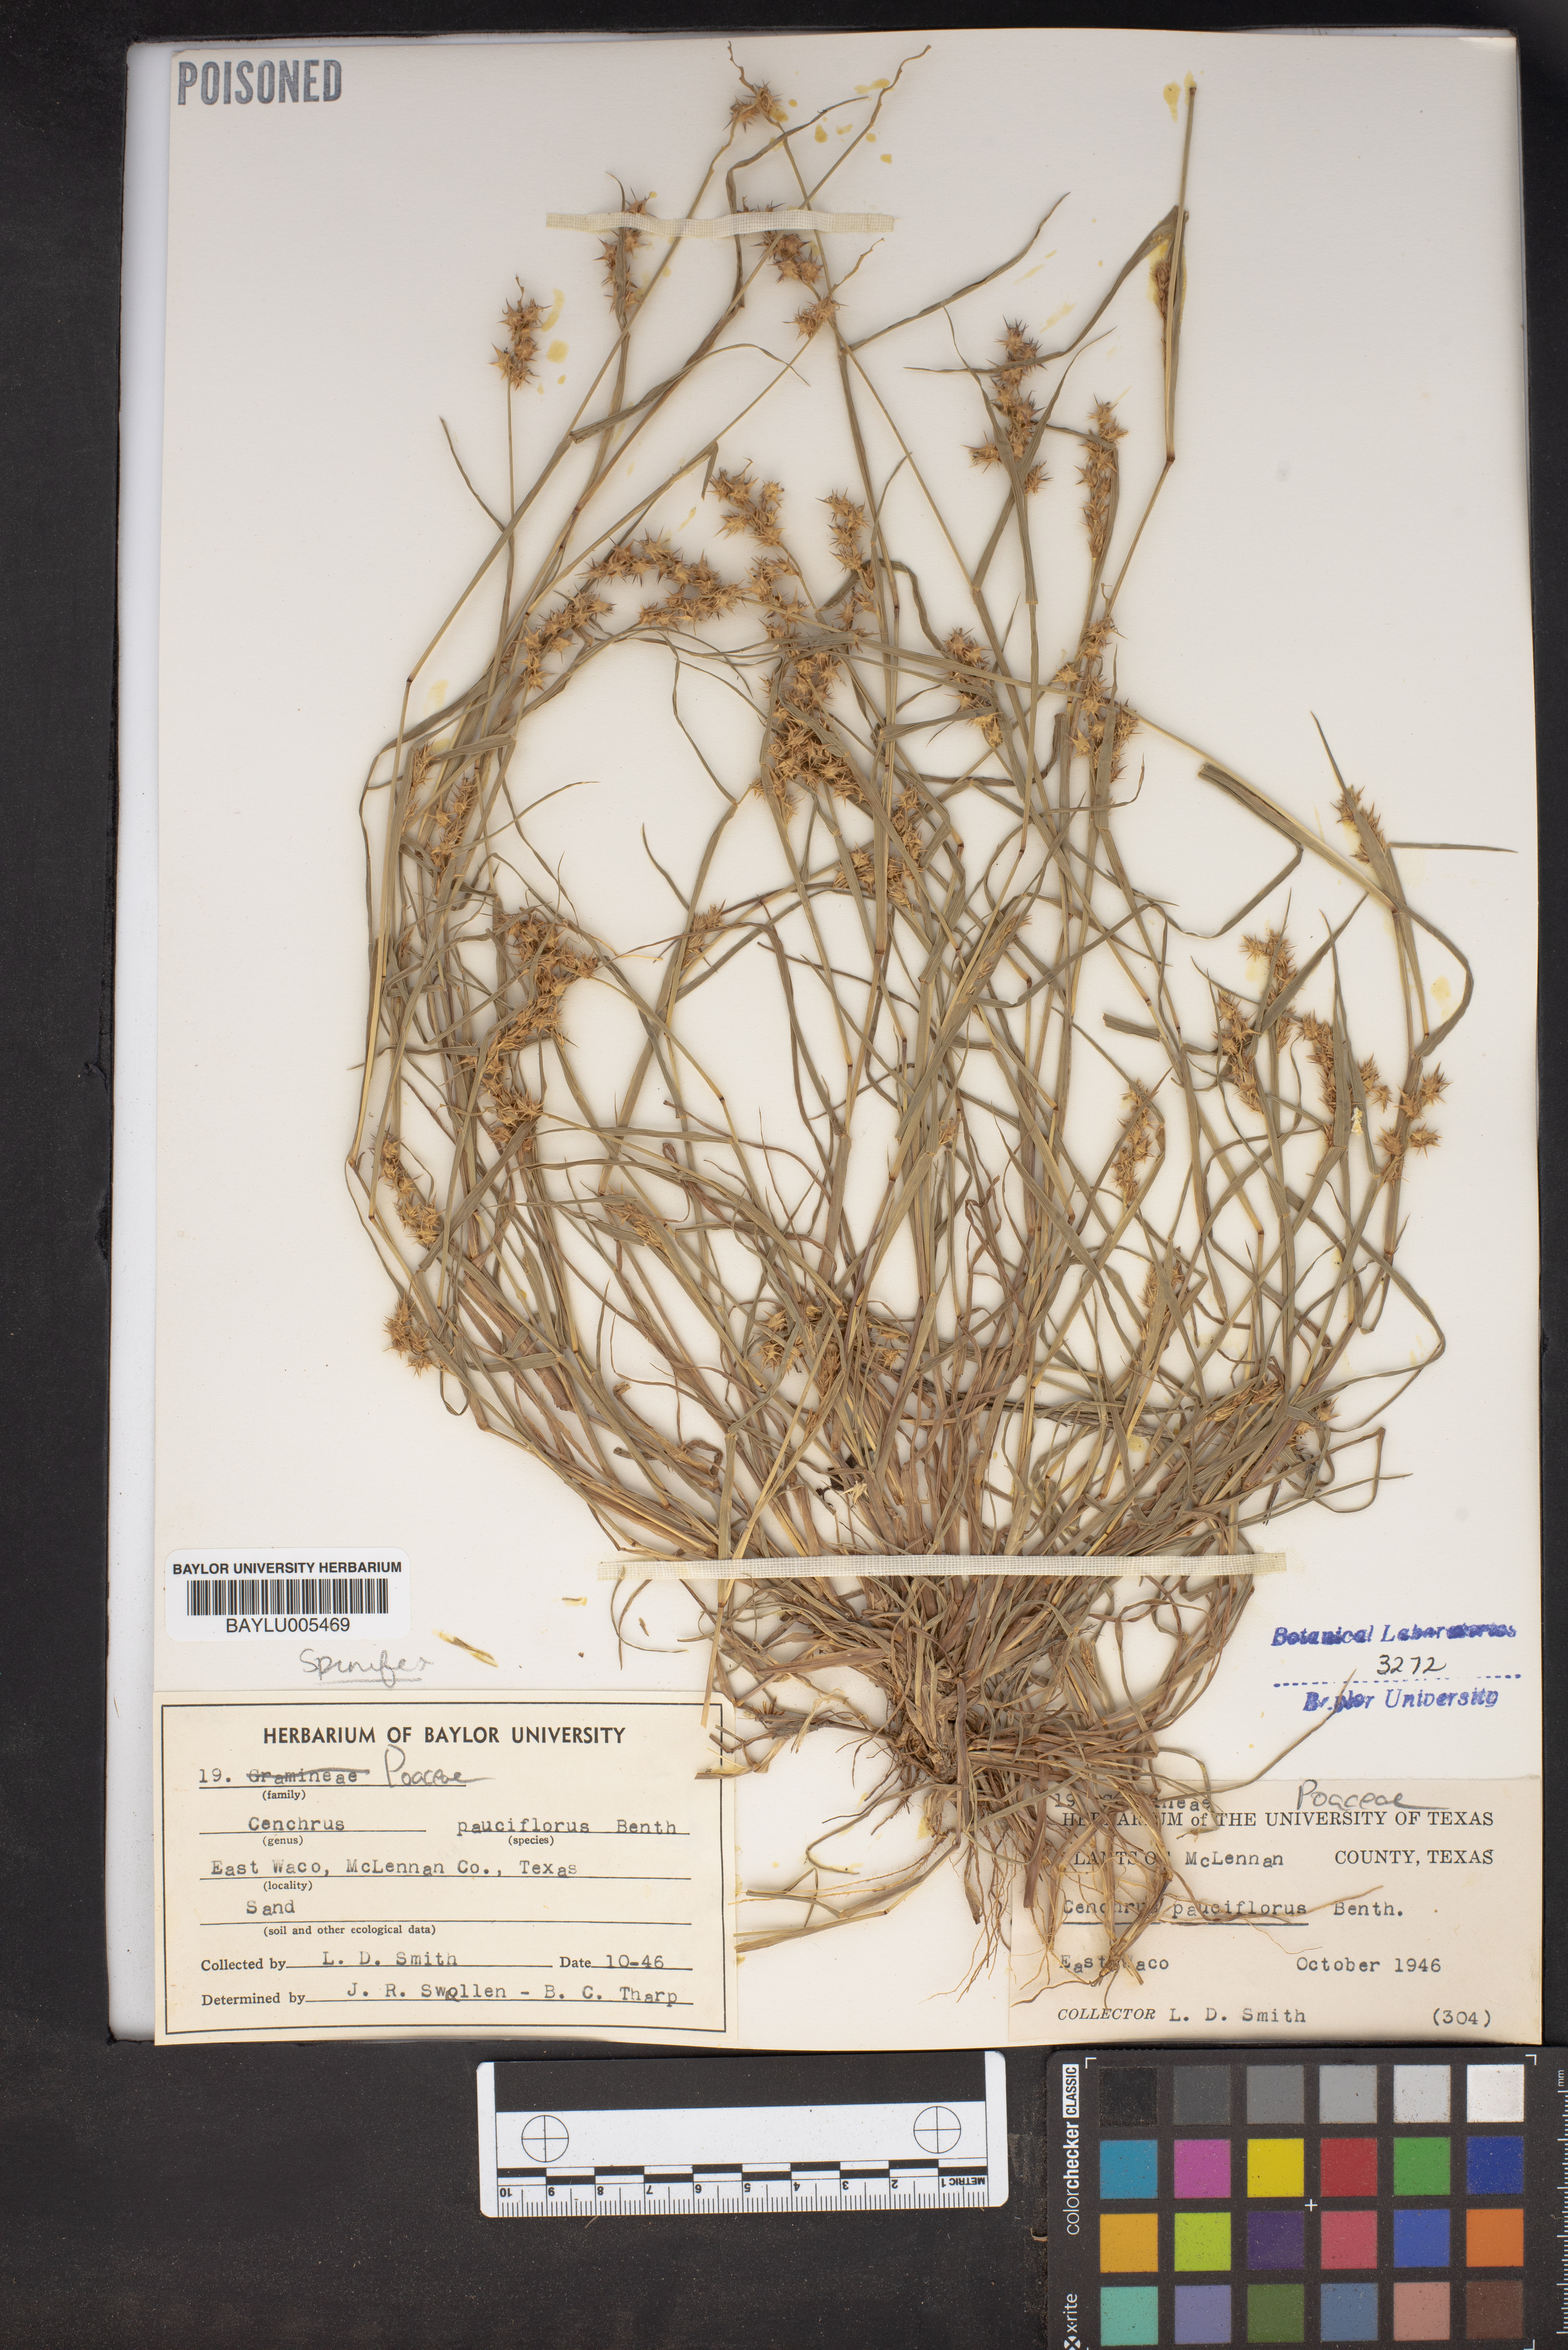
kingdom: Plantae
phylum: Tracheophyta
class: Liliopsida
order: Poales
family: Poaceae
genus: Cenchrus
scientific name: Cenchrus spinifex
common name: Coast sandbur
